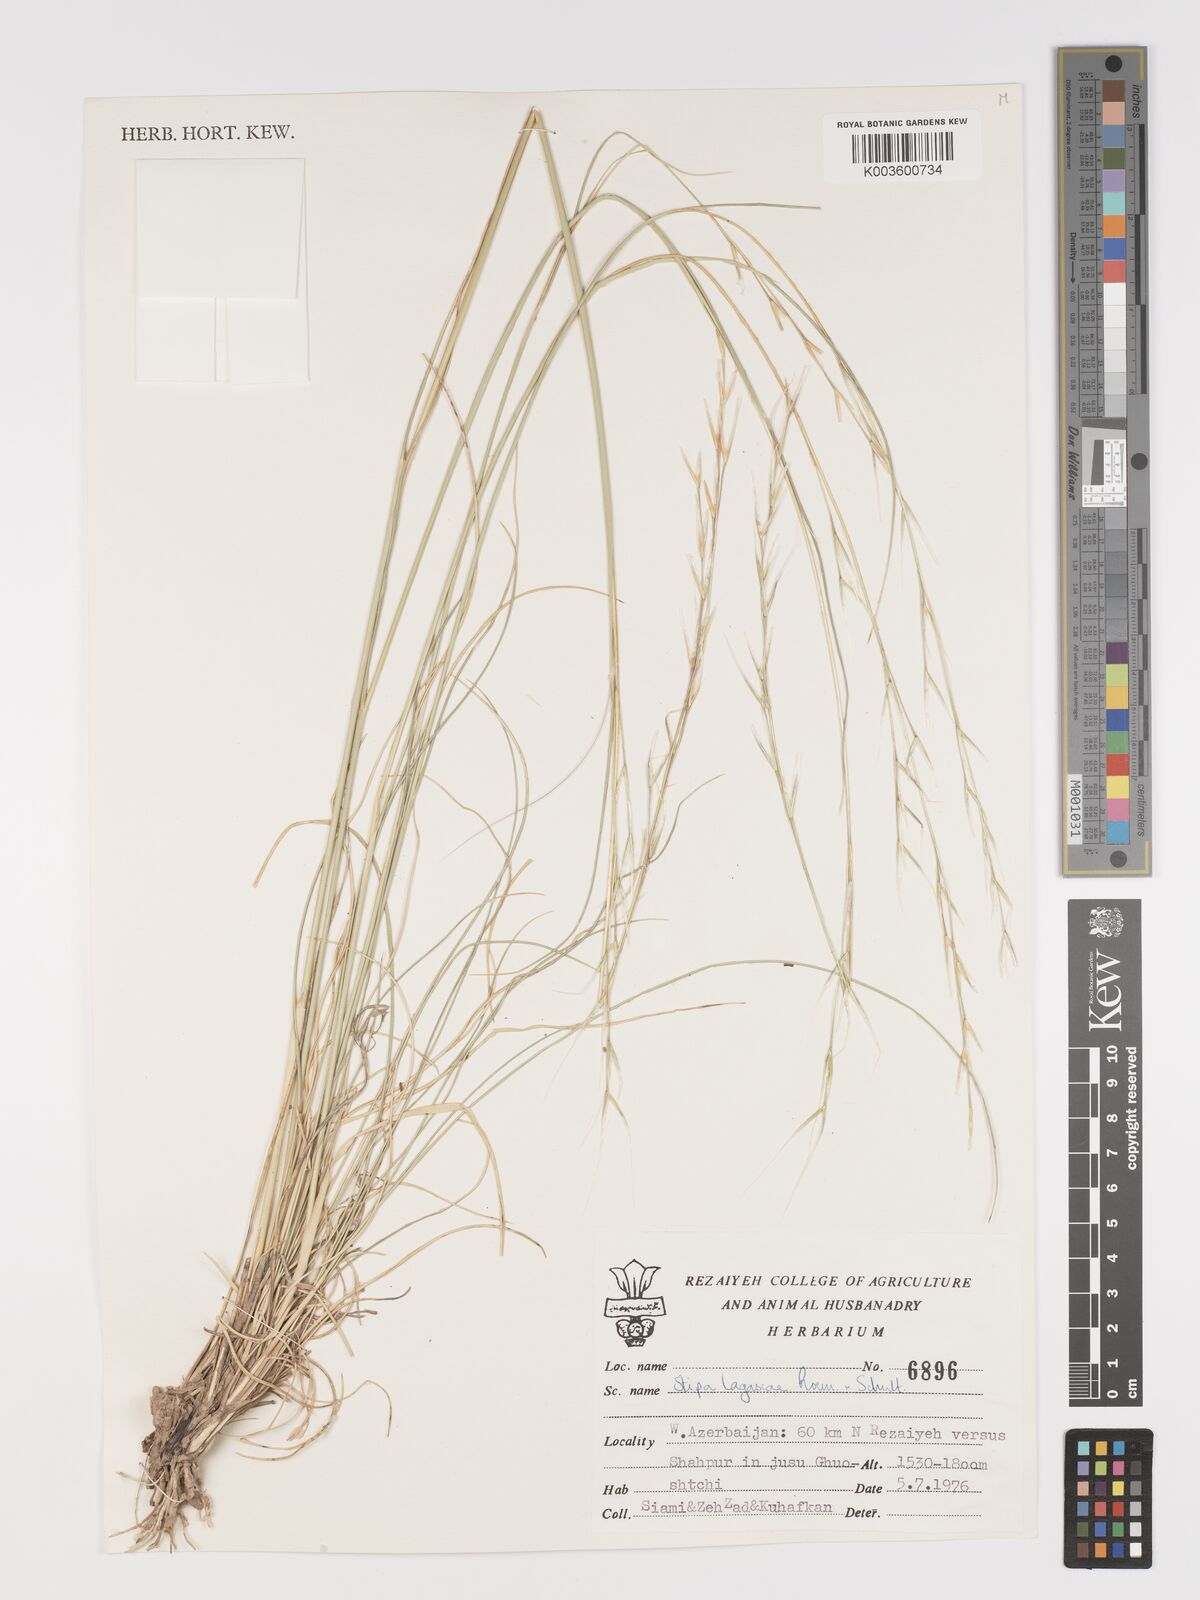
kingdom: Plantae
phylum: Tracheophyta
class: Liliopsida
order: Poales
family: Poaceae
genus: Stipa
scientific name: Stipa holosericea
